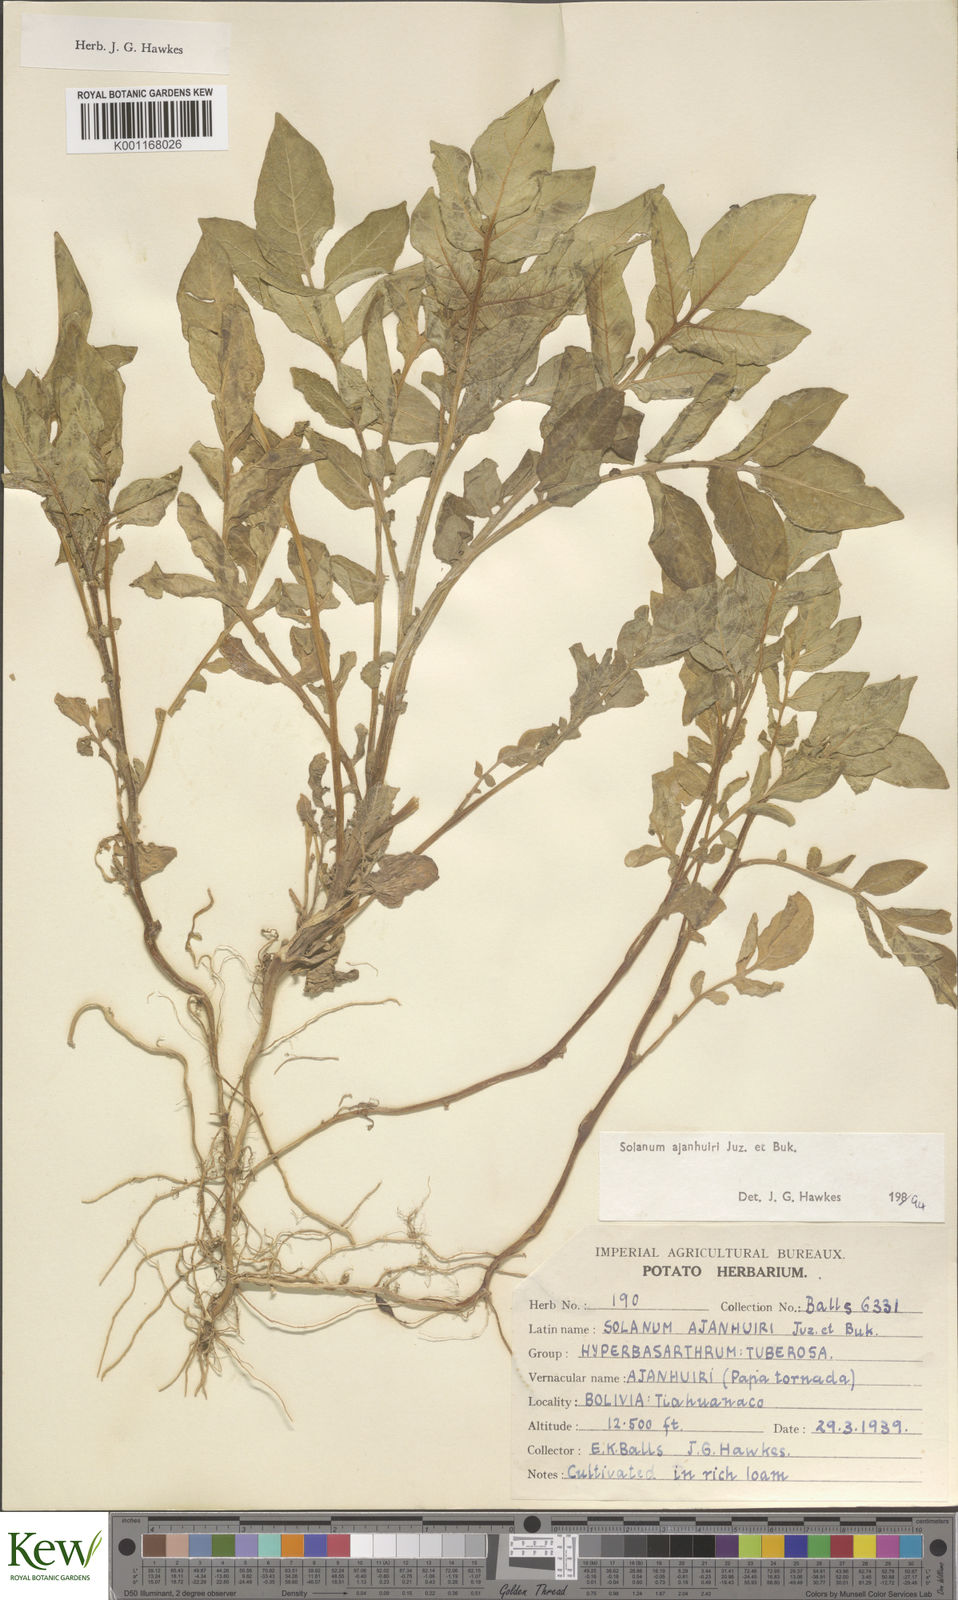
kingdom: Plantae
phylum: Tracheophyta
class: Magnoliopsida
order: Solanales
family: Solanaceae
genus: Solanum
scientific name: Solanum ajanhuiri
